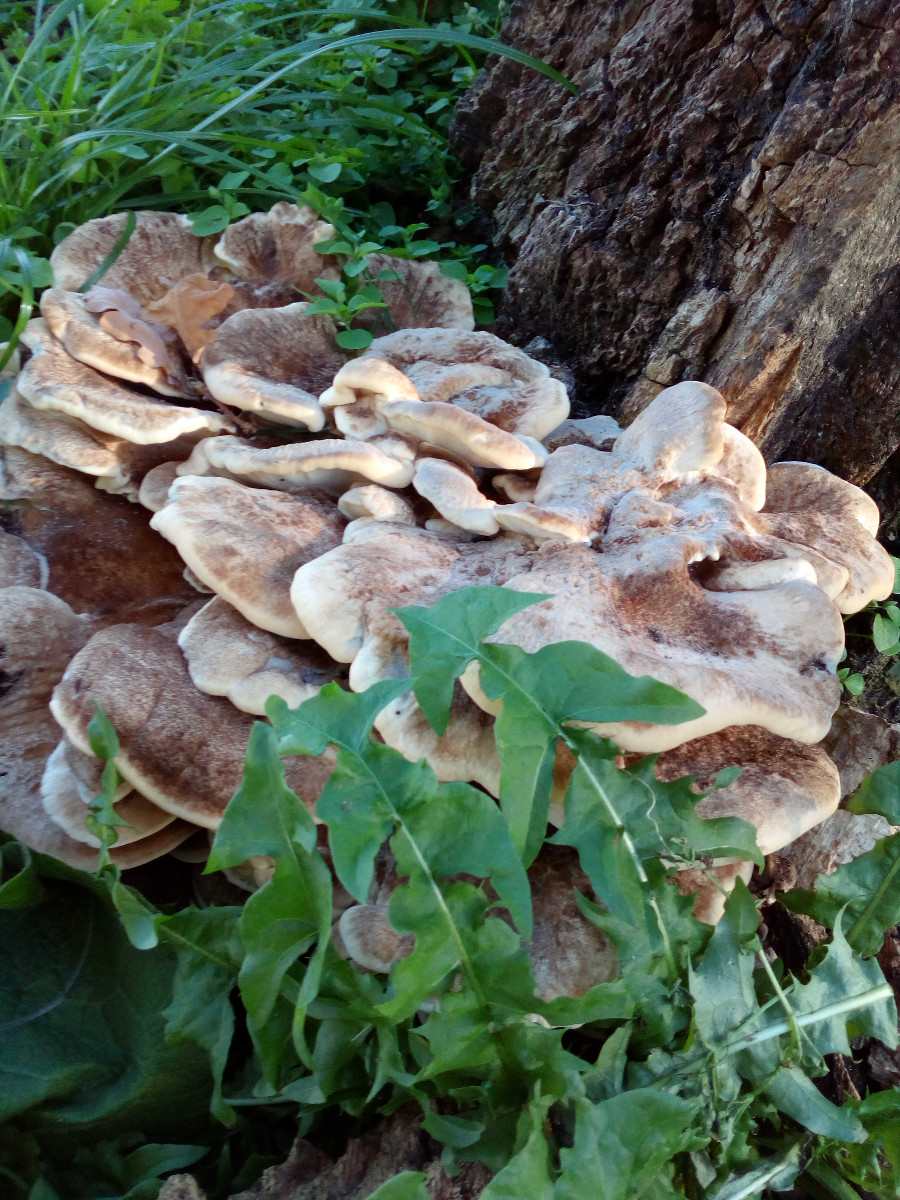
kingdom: Fungi
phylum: Basidiomycota
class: Agaricomycetes
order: Polyporales
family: Meripilaceae
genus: Meripilus
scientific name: Meripilus giganteus
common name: kæmpeporesvamp
